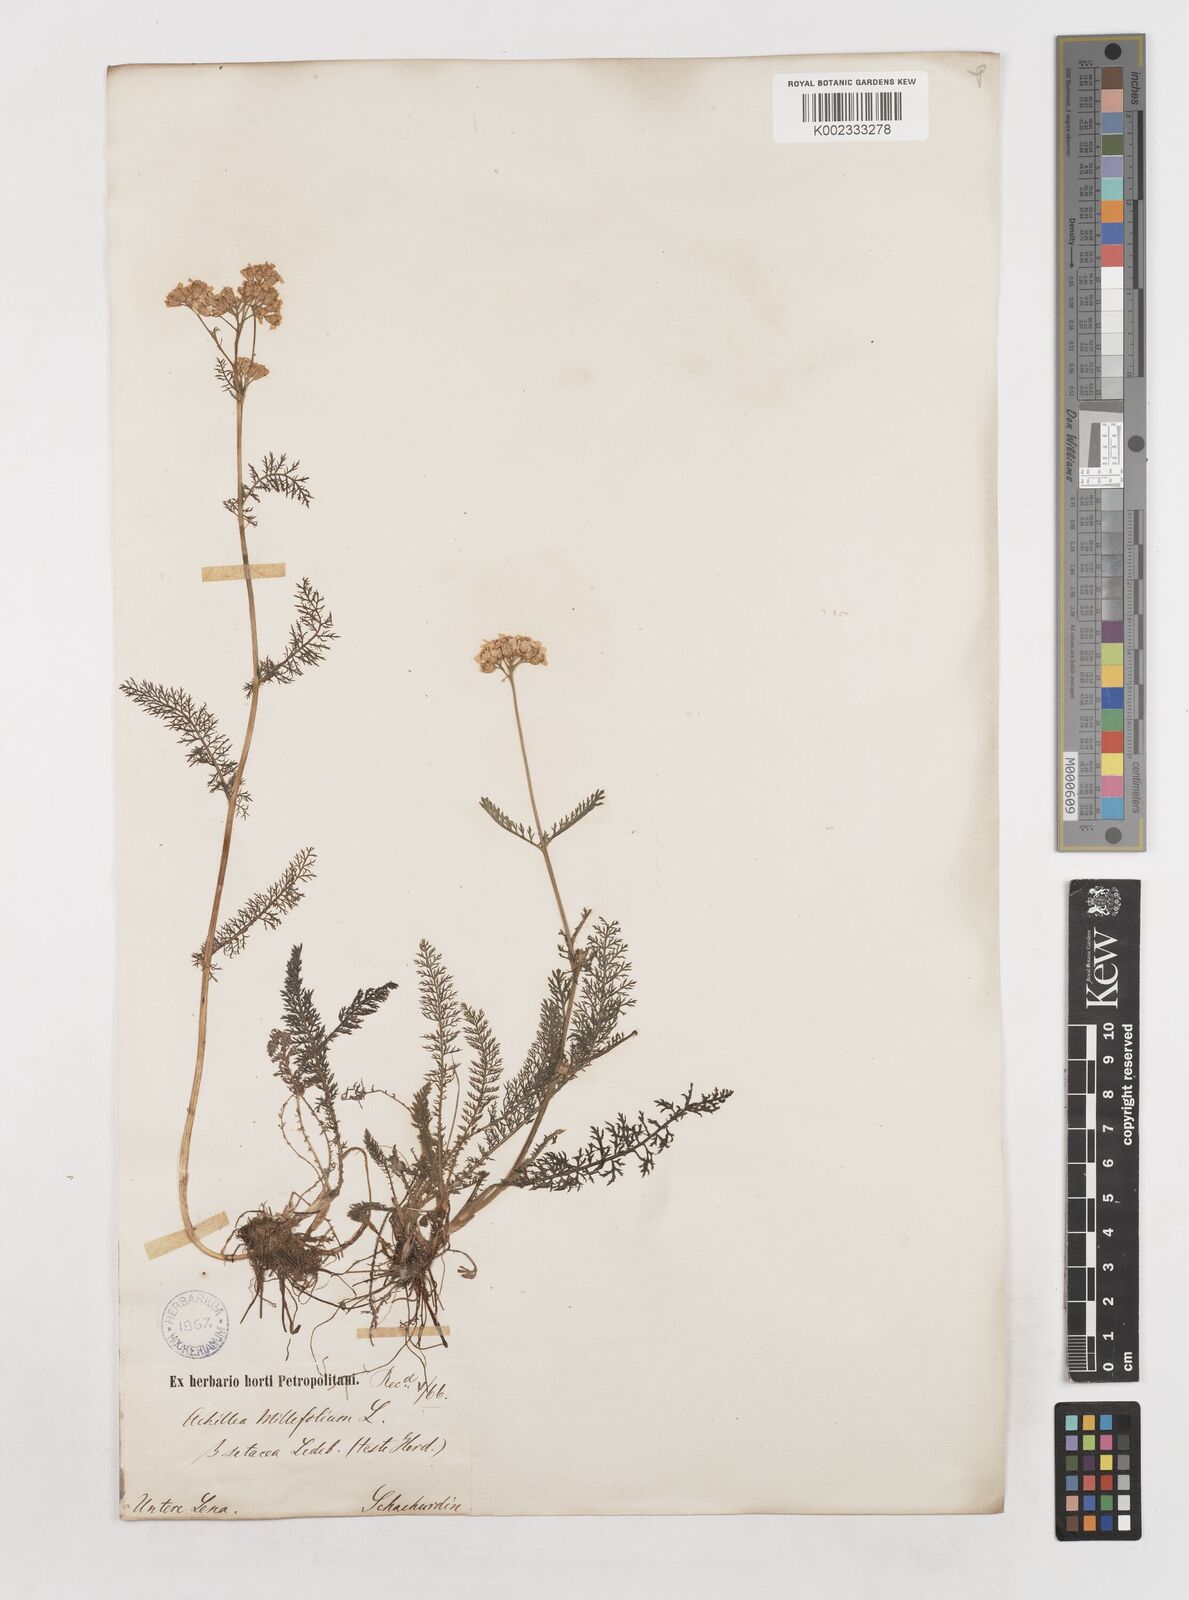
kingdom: Plantae
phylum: Tracheophyta
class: Magnoliopsida
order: Asterales
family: Asteraceae
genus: Achillea
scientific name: Achillea setacea
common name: Bristly yarrow
